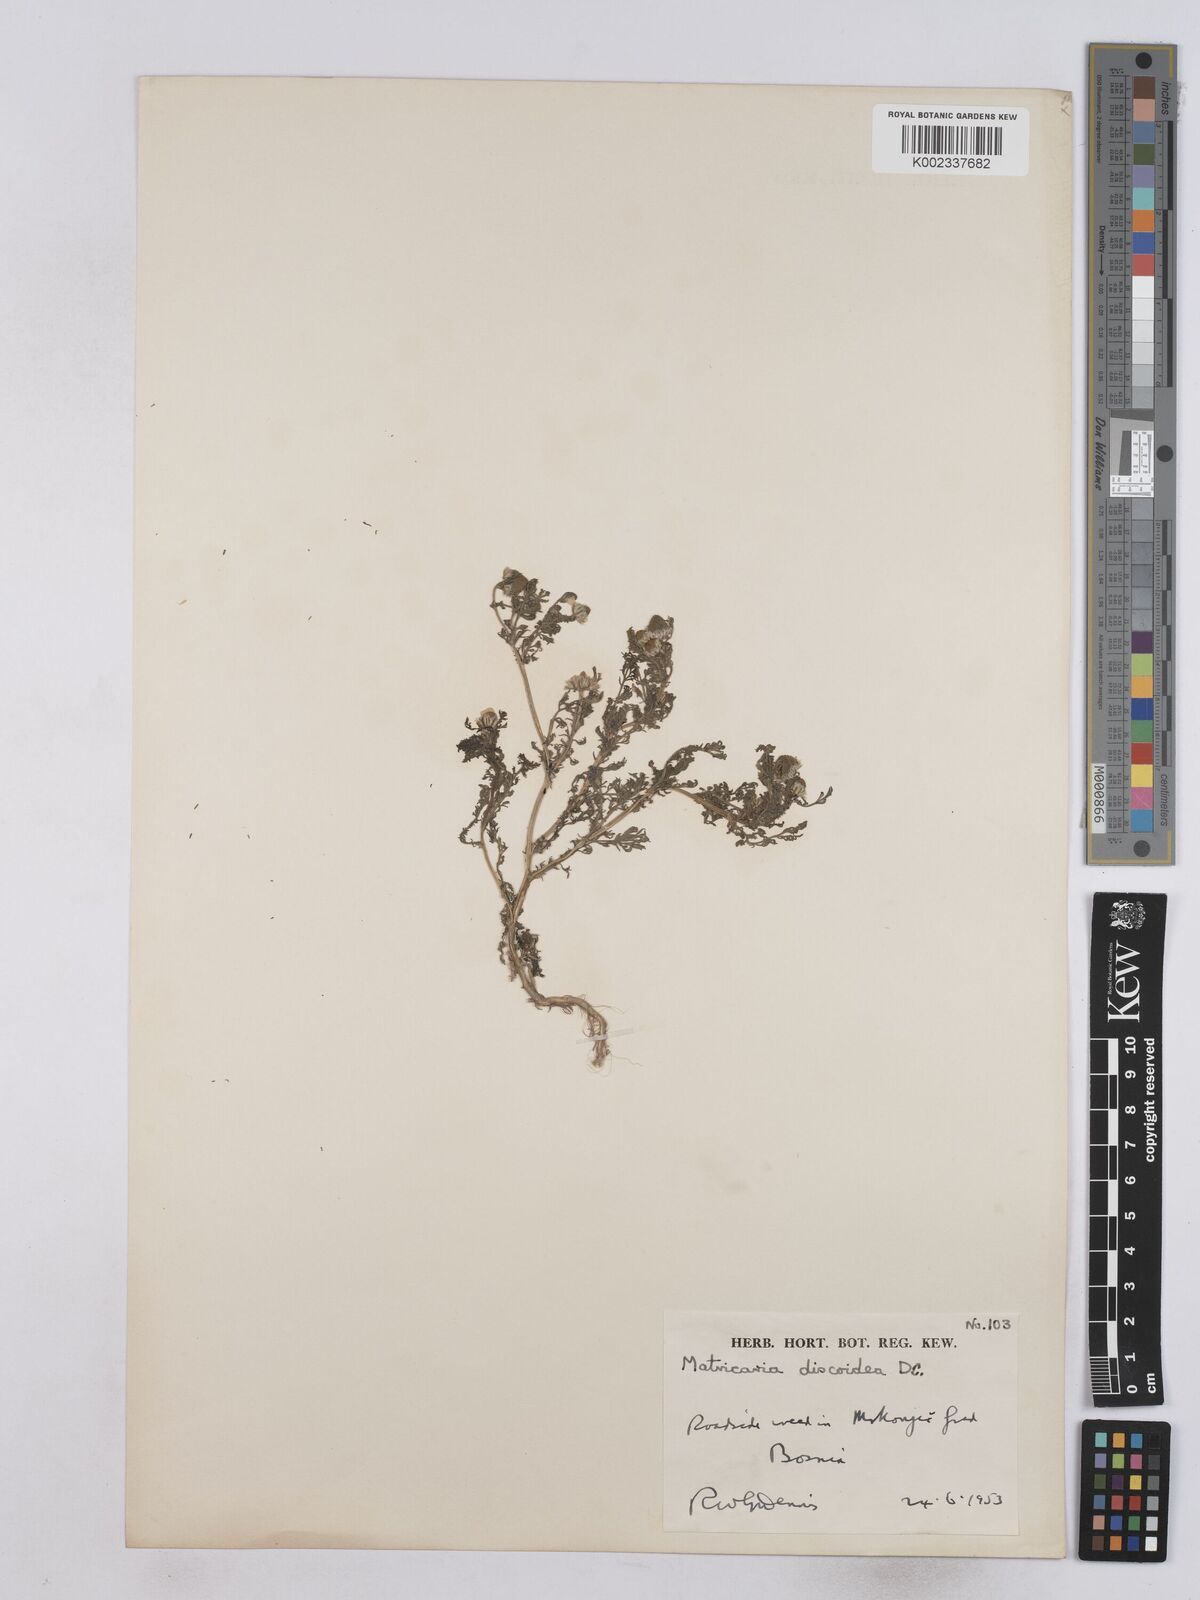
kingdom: Plantae
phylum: Tracheophyta
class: Magnoliopsida
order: Asterales
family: Asteraceae
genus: Matricaria
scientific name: Matricaria
